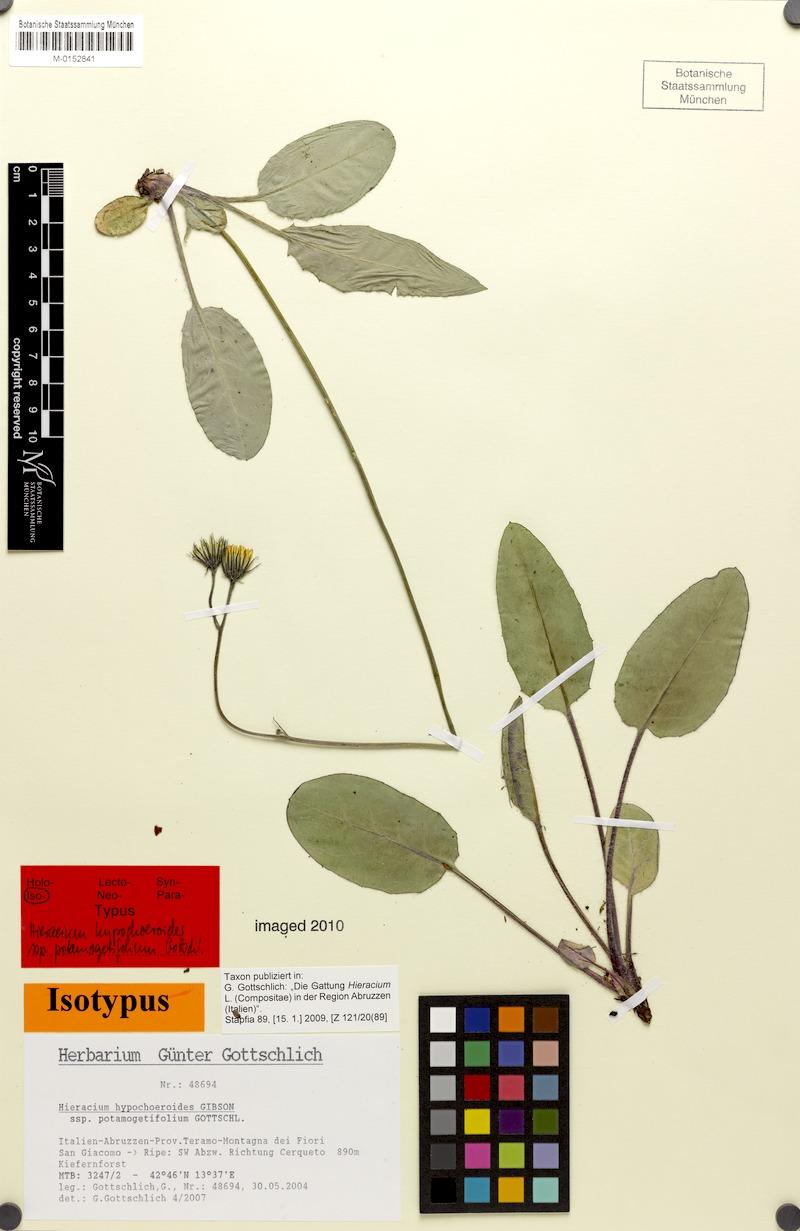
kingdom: Plantae
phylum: Tracheophyta
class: Magnoliopsida
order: Asterales
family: Asteraceae
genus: Hieracium
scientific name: Hieracium hypochoeroides
